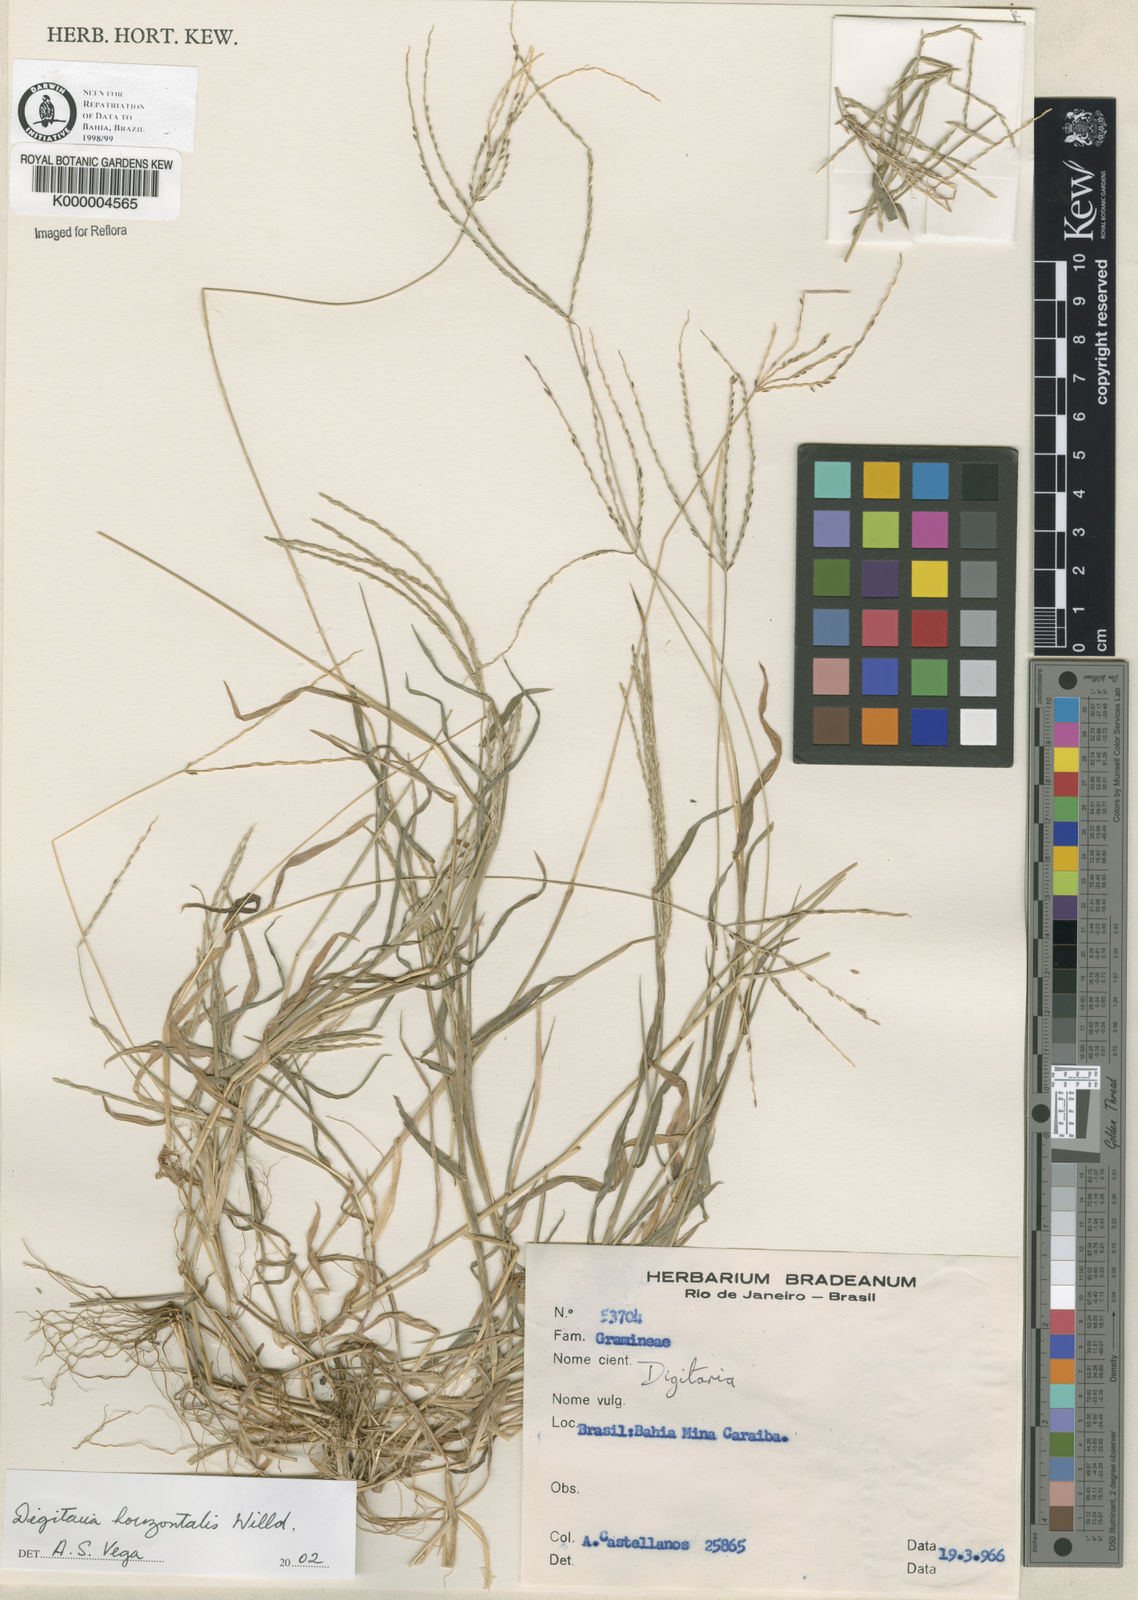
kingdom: Plantae
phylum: Tracheophyta
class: Liliopsida
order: Poales
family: Poaceae
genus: Digitaria
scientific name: Digitaria nuda
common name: Naked crabgrass
